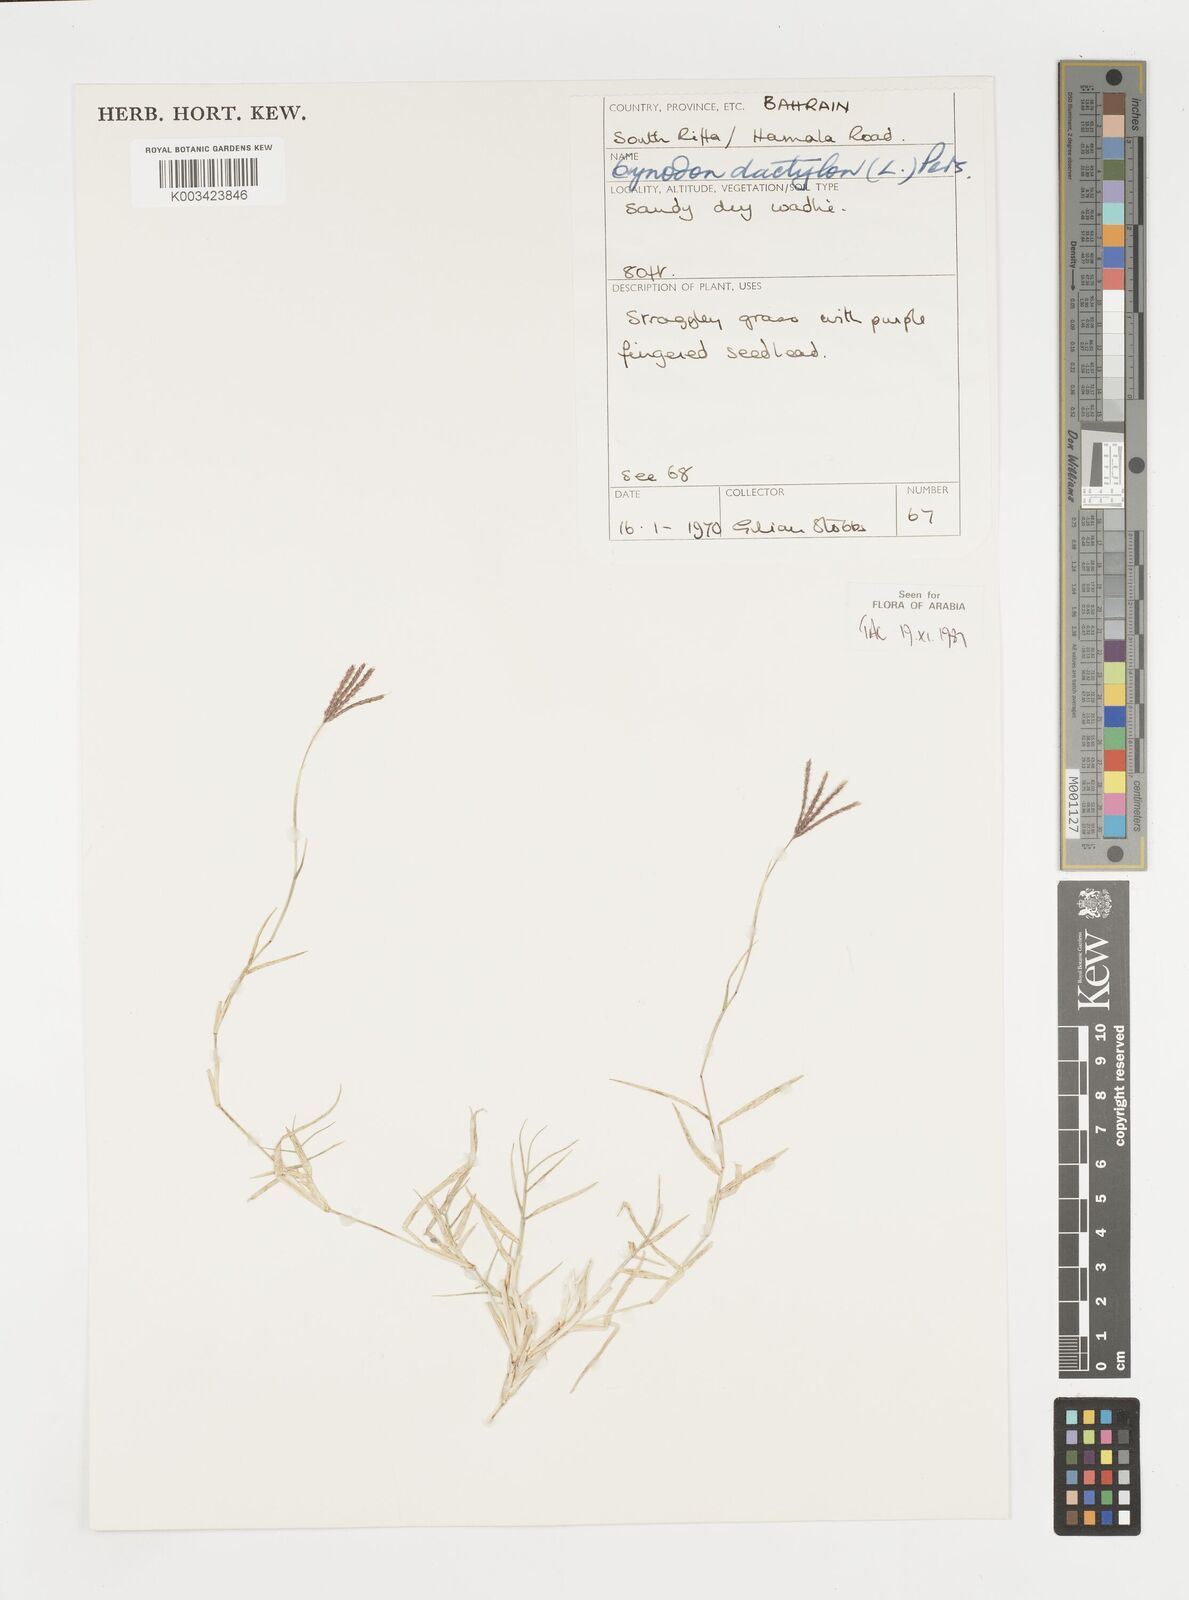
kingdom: Plantae
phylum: Tracheophyta
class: Liliopsida
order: Poales
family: Poaceae
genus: Cynodon
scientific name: Cynodon dactylon
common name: Bermuda grass
